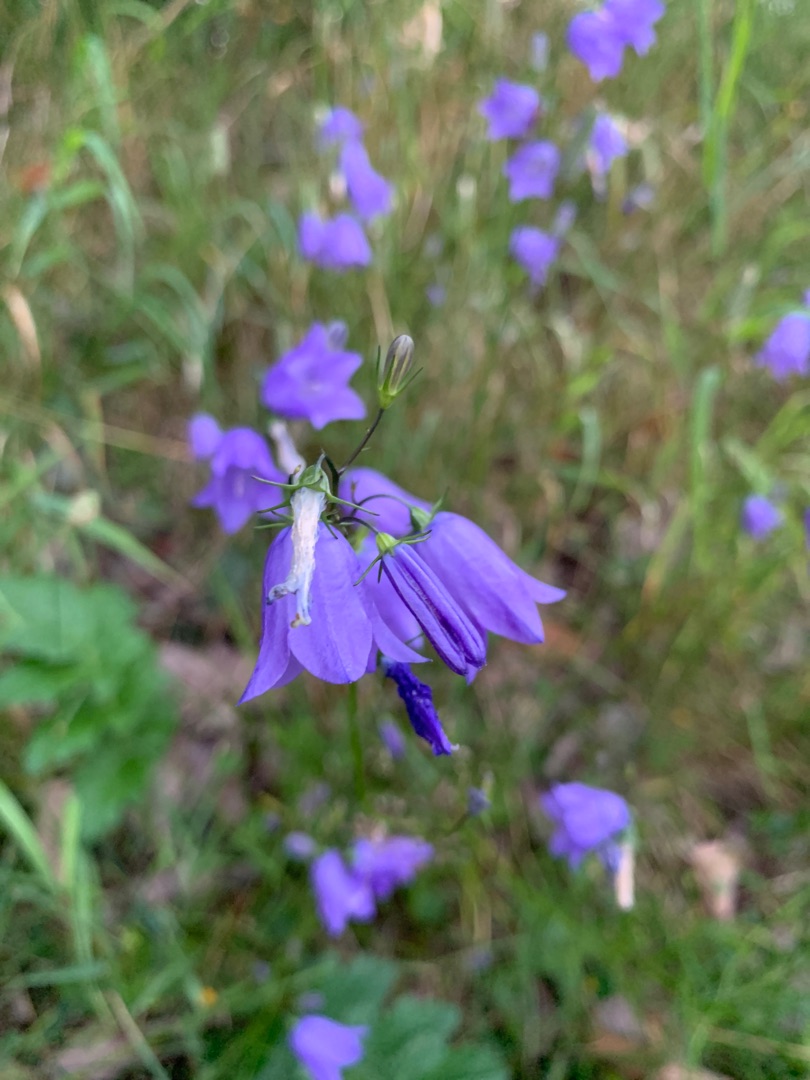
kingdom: Plantae
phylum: Tracheophyta
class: Magnoliopsida
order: Asterales
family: Campanulaceae
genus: Campanula
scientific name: Campanula rotundifolia
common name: Liden klokke
